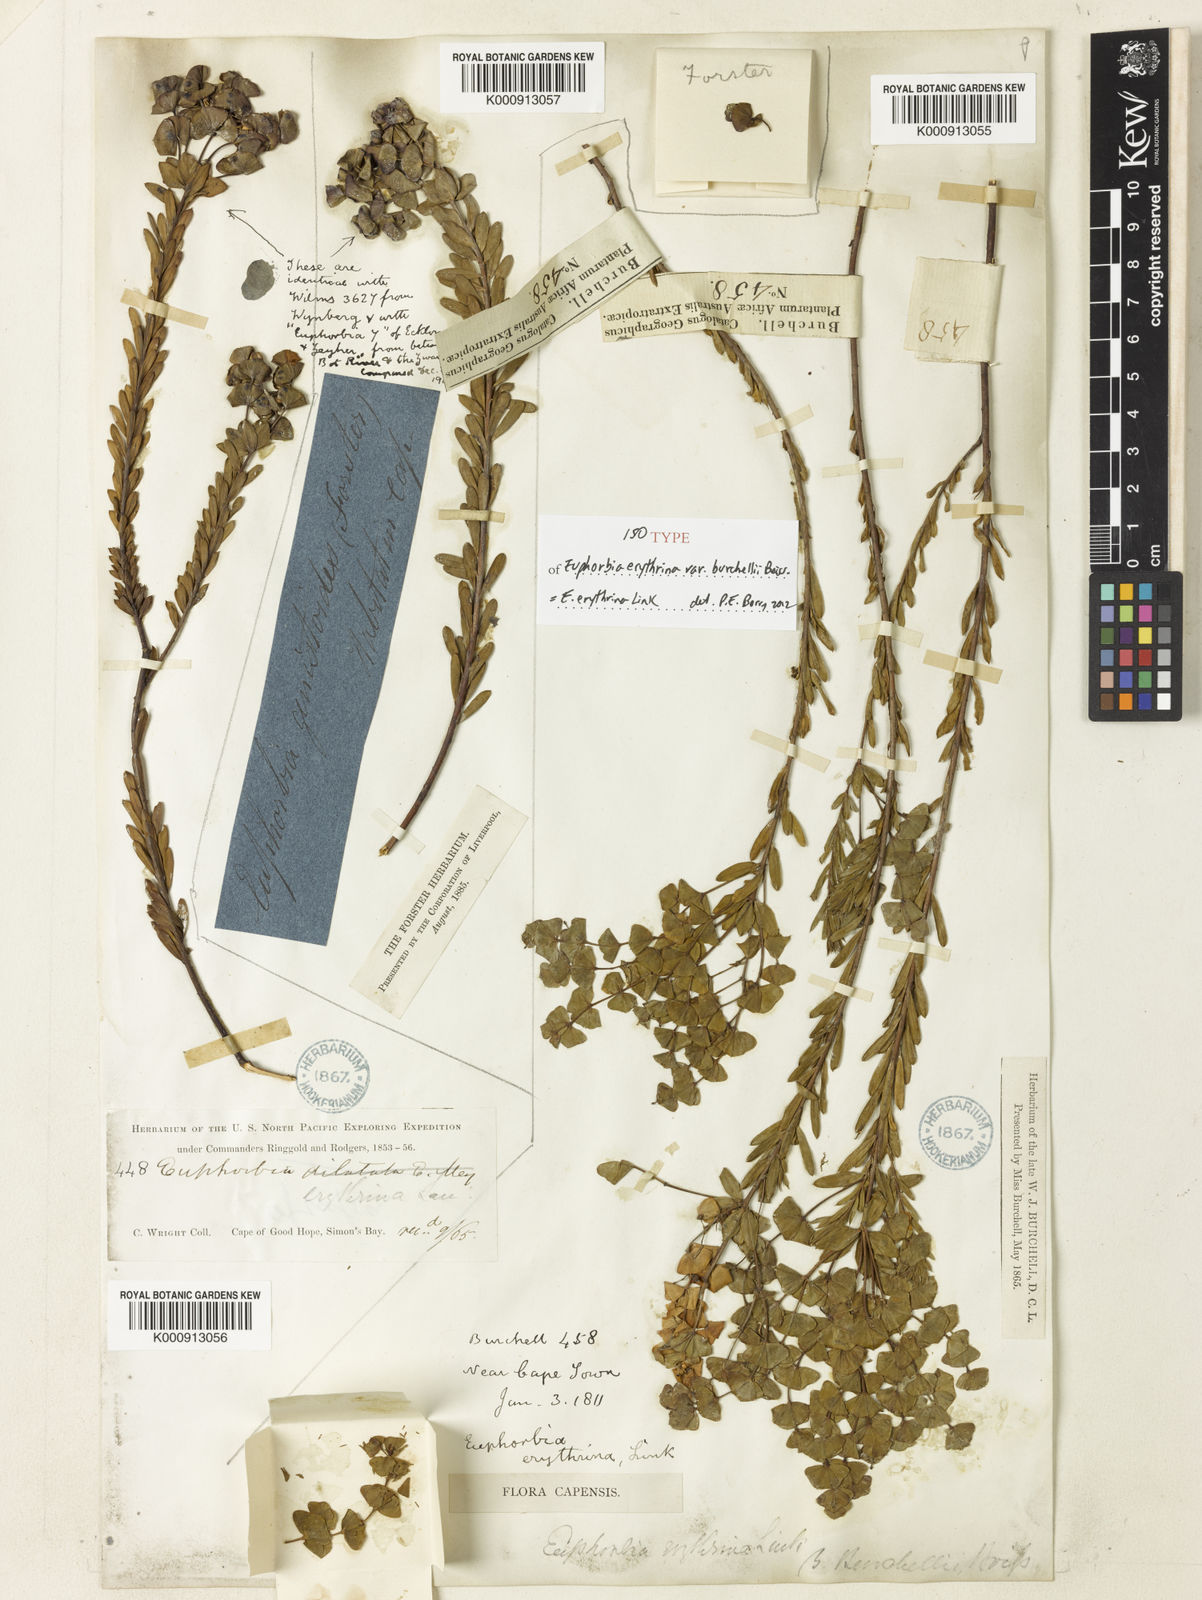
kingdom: Plantae
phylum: Tracheophyta
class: Magnoliopsida
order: Malpighiales
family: Euphorbiaceae
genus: Euphorbia
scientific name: Euphorbia genistoides
